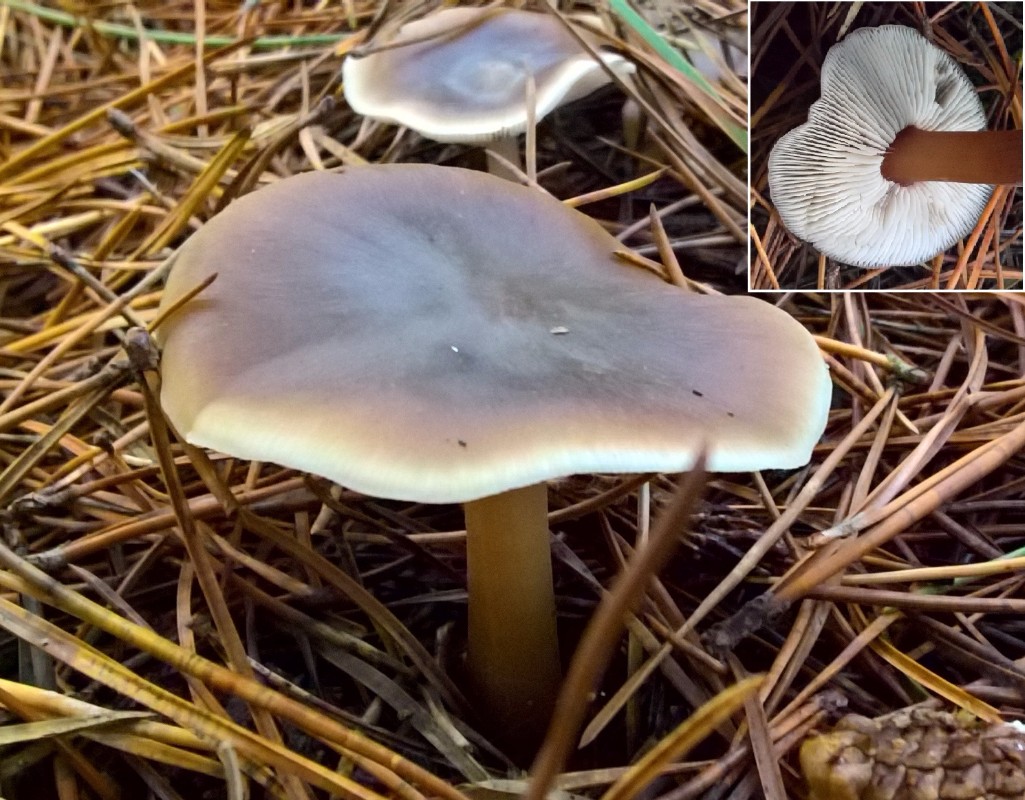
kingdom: Fungi
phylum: Basidiomycota
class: Agaricomycetes
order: Agaricales
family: Omphalotaceae
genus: Rhodocollybia
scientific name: Rhodocollybia asema
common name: horngrå fladhat
